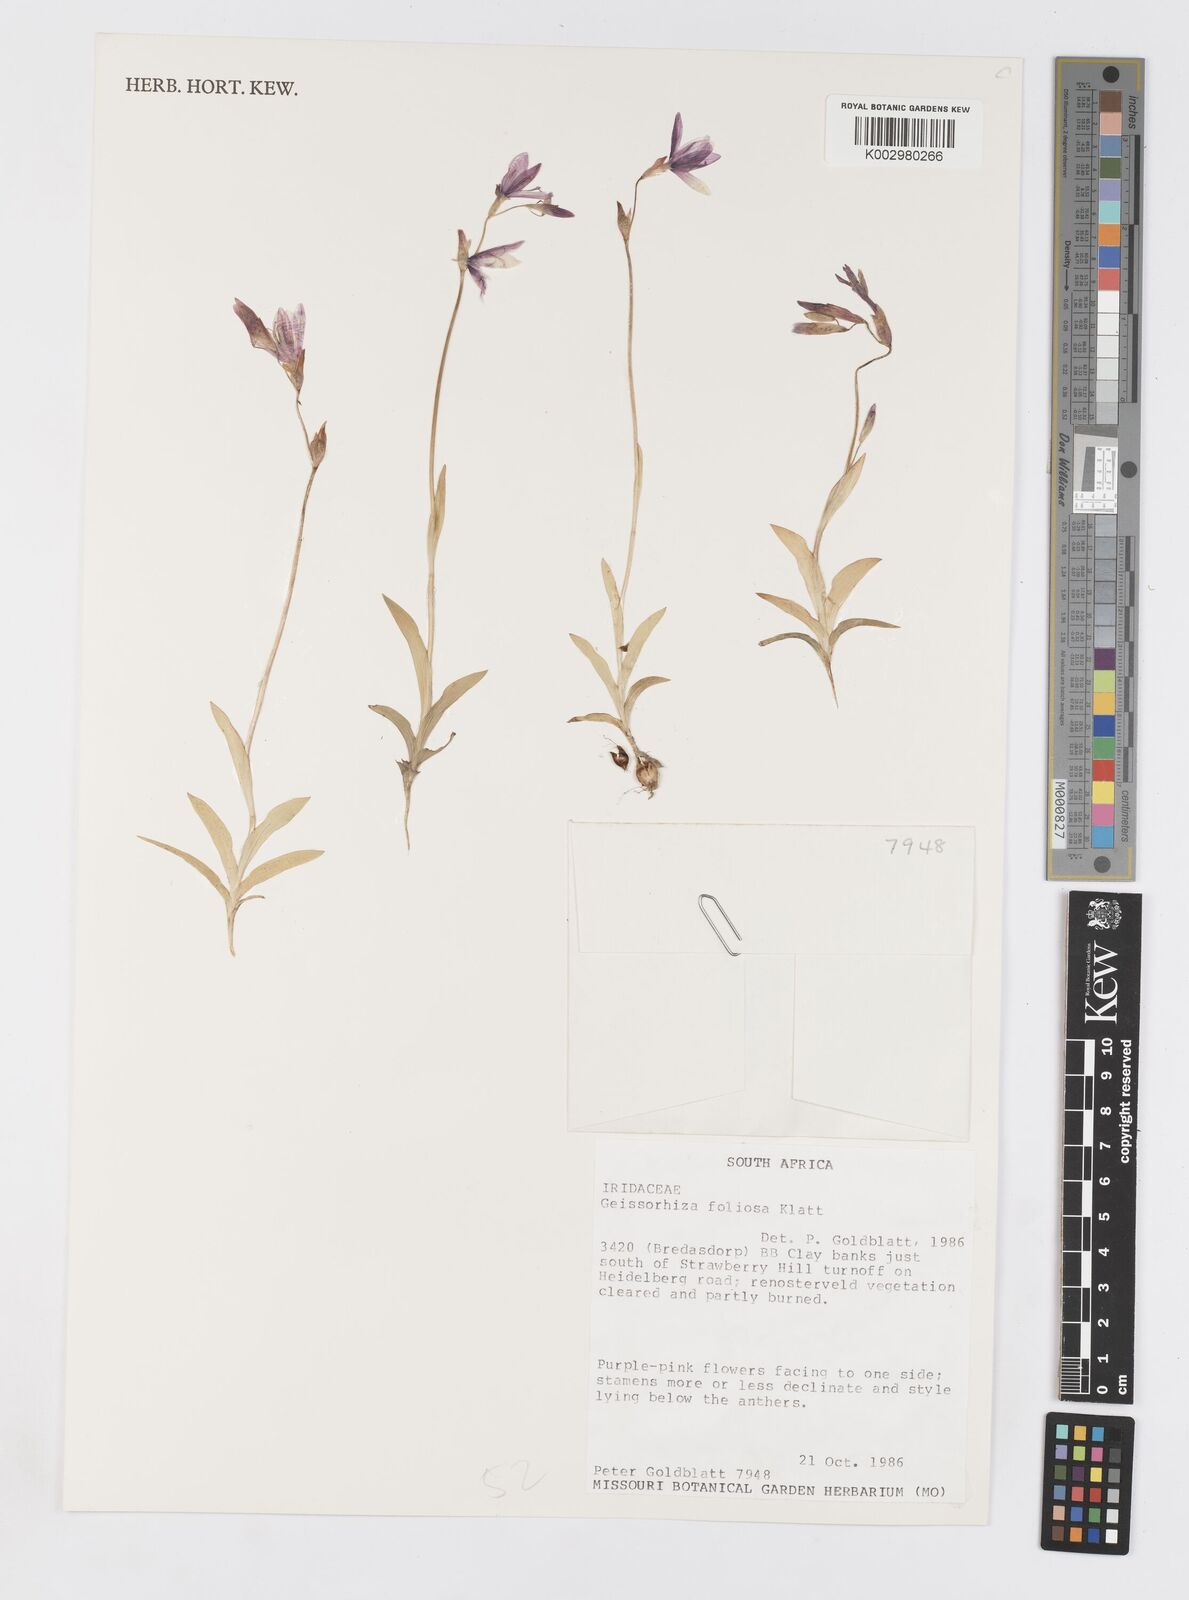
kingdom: Plantae
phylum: Tracheophyta
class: Liliopsida
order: Asparagales
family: Iridaceae
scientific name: Iridaceae
